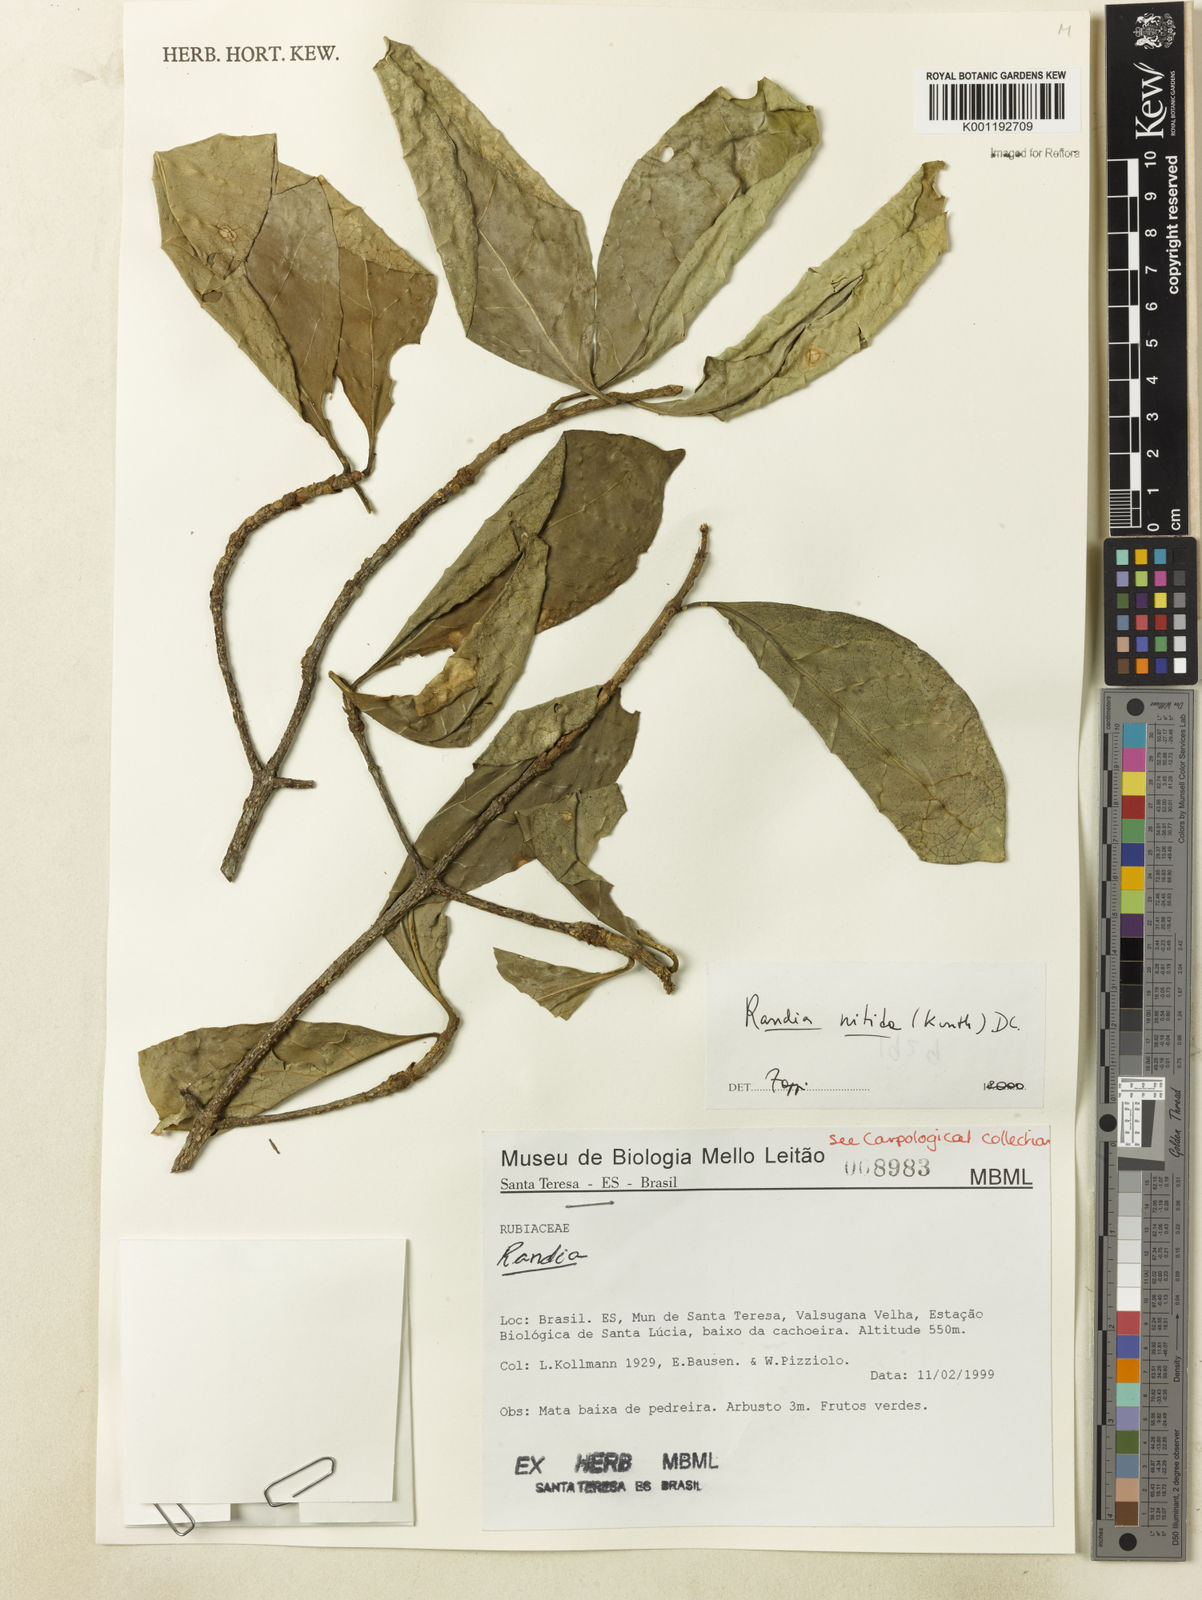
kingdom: Plantae
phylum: Tracheophyta
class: Magnoliopsida
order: Gentianales
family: Rubiaceae
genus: Randia
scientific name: Randia nitida
